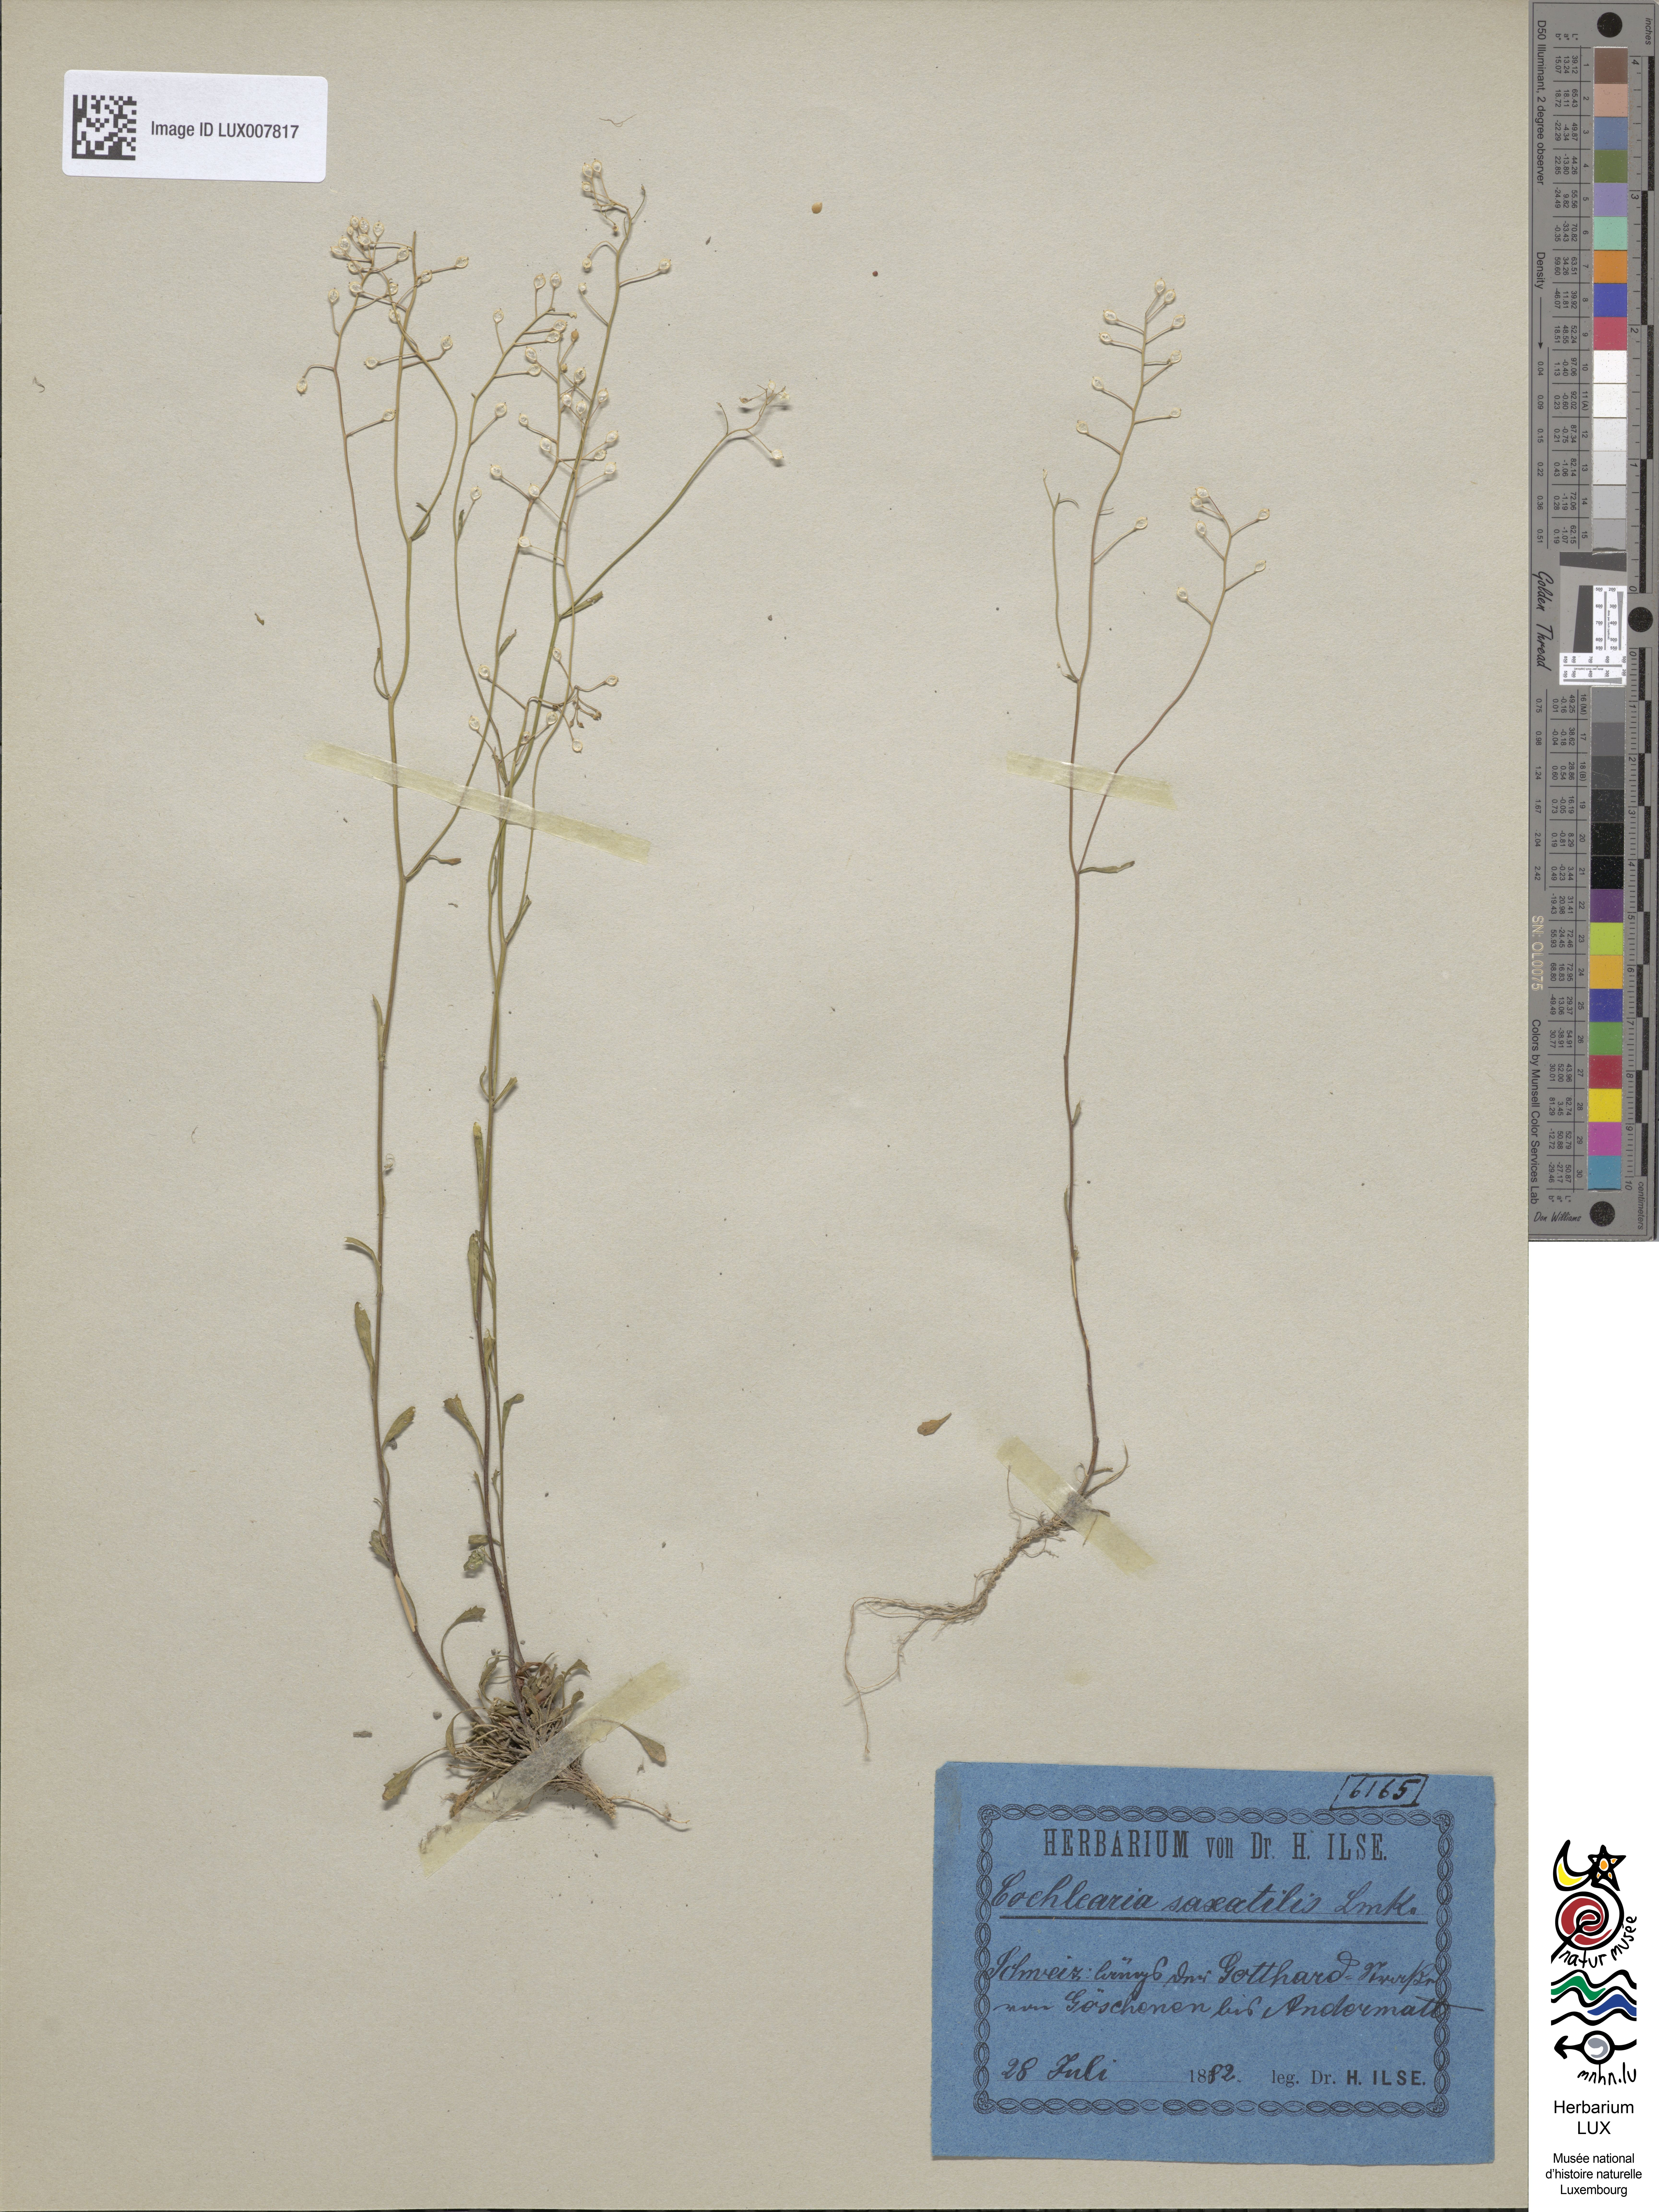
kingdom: Plantae
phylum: Tracheophyta
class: Magnoliopsida
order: Brassicales
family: Brassicaceae
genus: Kernera
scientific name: Kernera saxatilis
